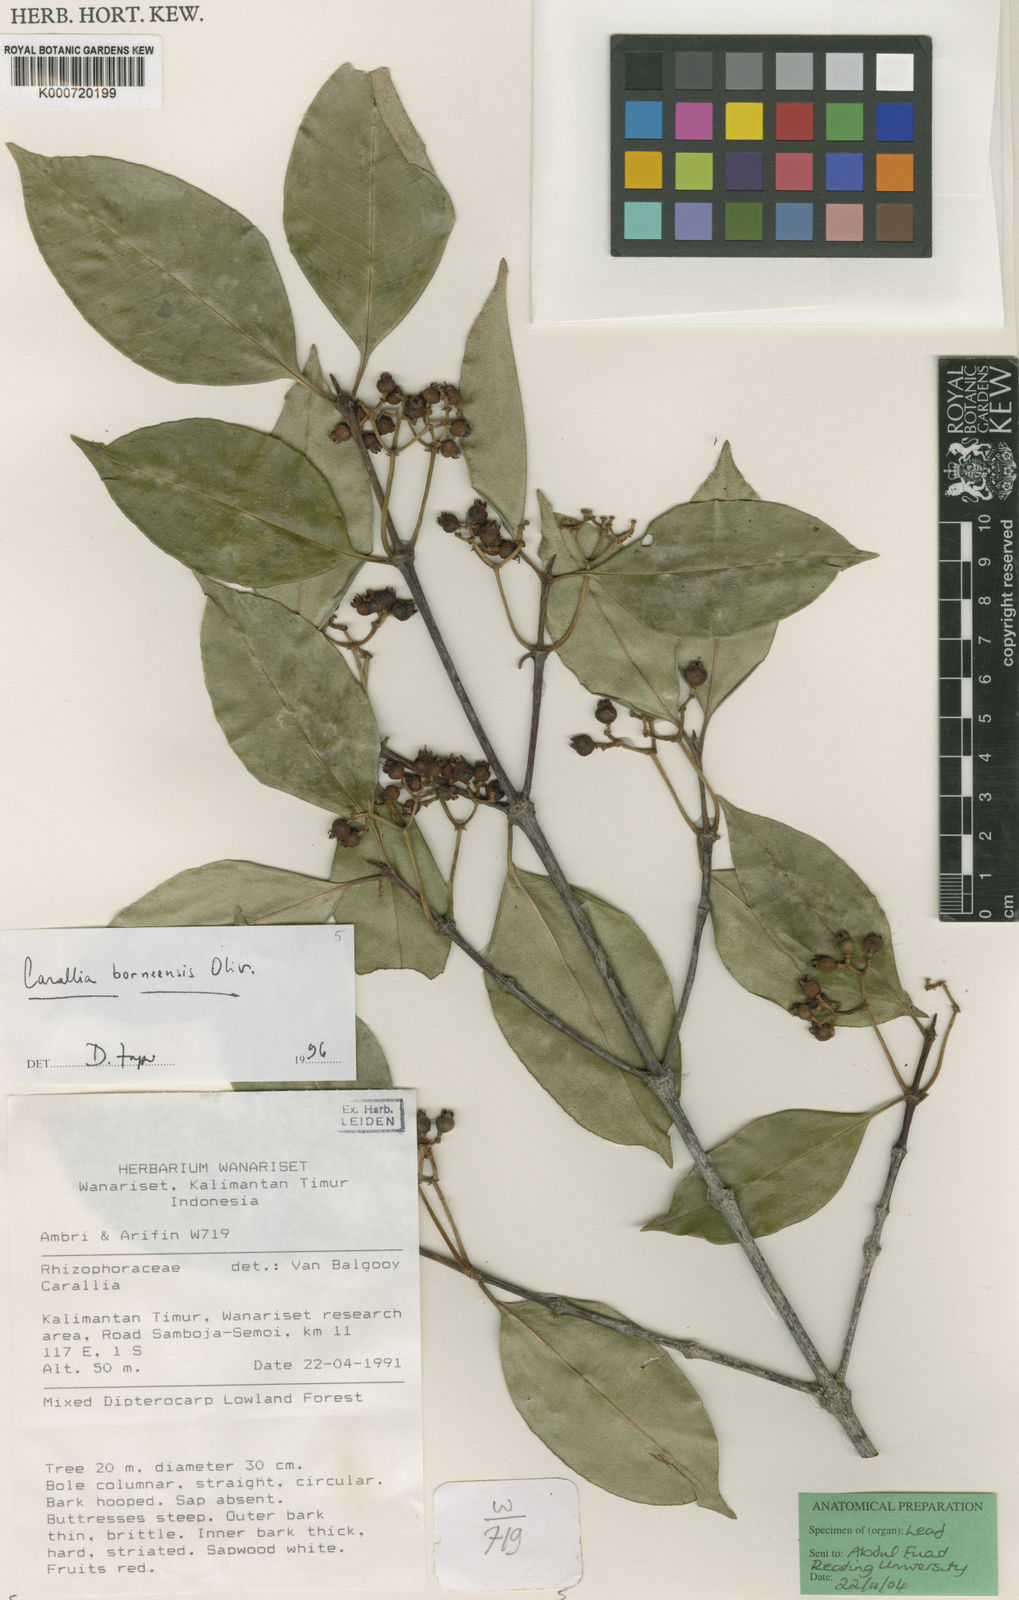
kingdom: Plantae
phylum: Tracheophyta
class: Magnoliopsida
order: Malpighiales
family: Rhizophoraceae
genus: Carallia
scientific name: Carallia borneensis
